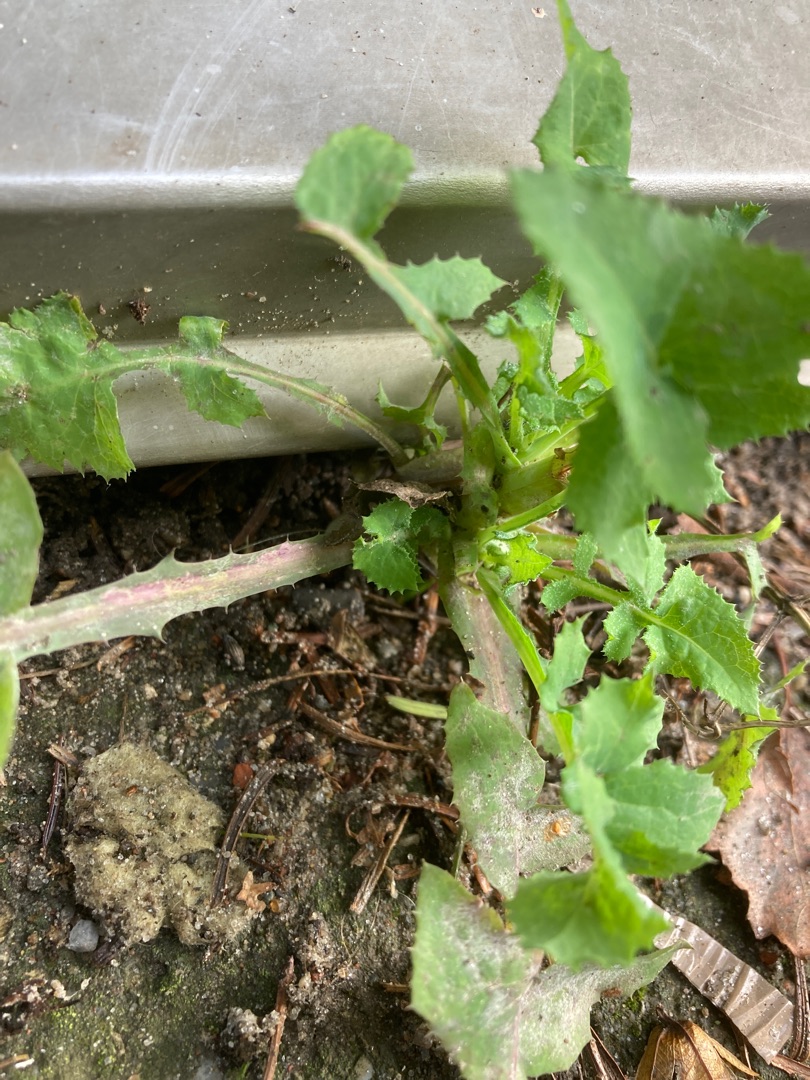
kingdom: Plantae
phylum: Tracheophyta
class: Magnoliopsida
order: Asterales
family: Asteraceae
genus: Sonchus
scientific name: Sonchus oleraceus
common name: Almindelig svinemælk
